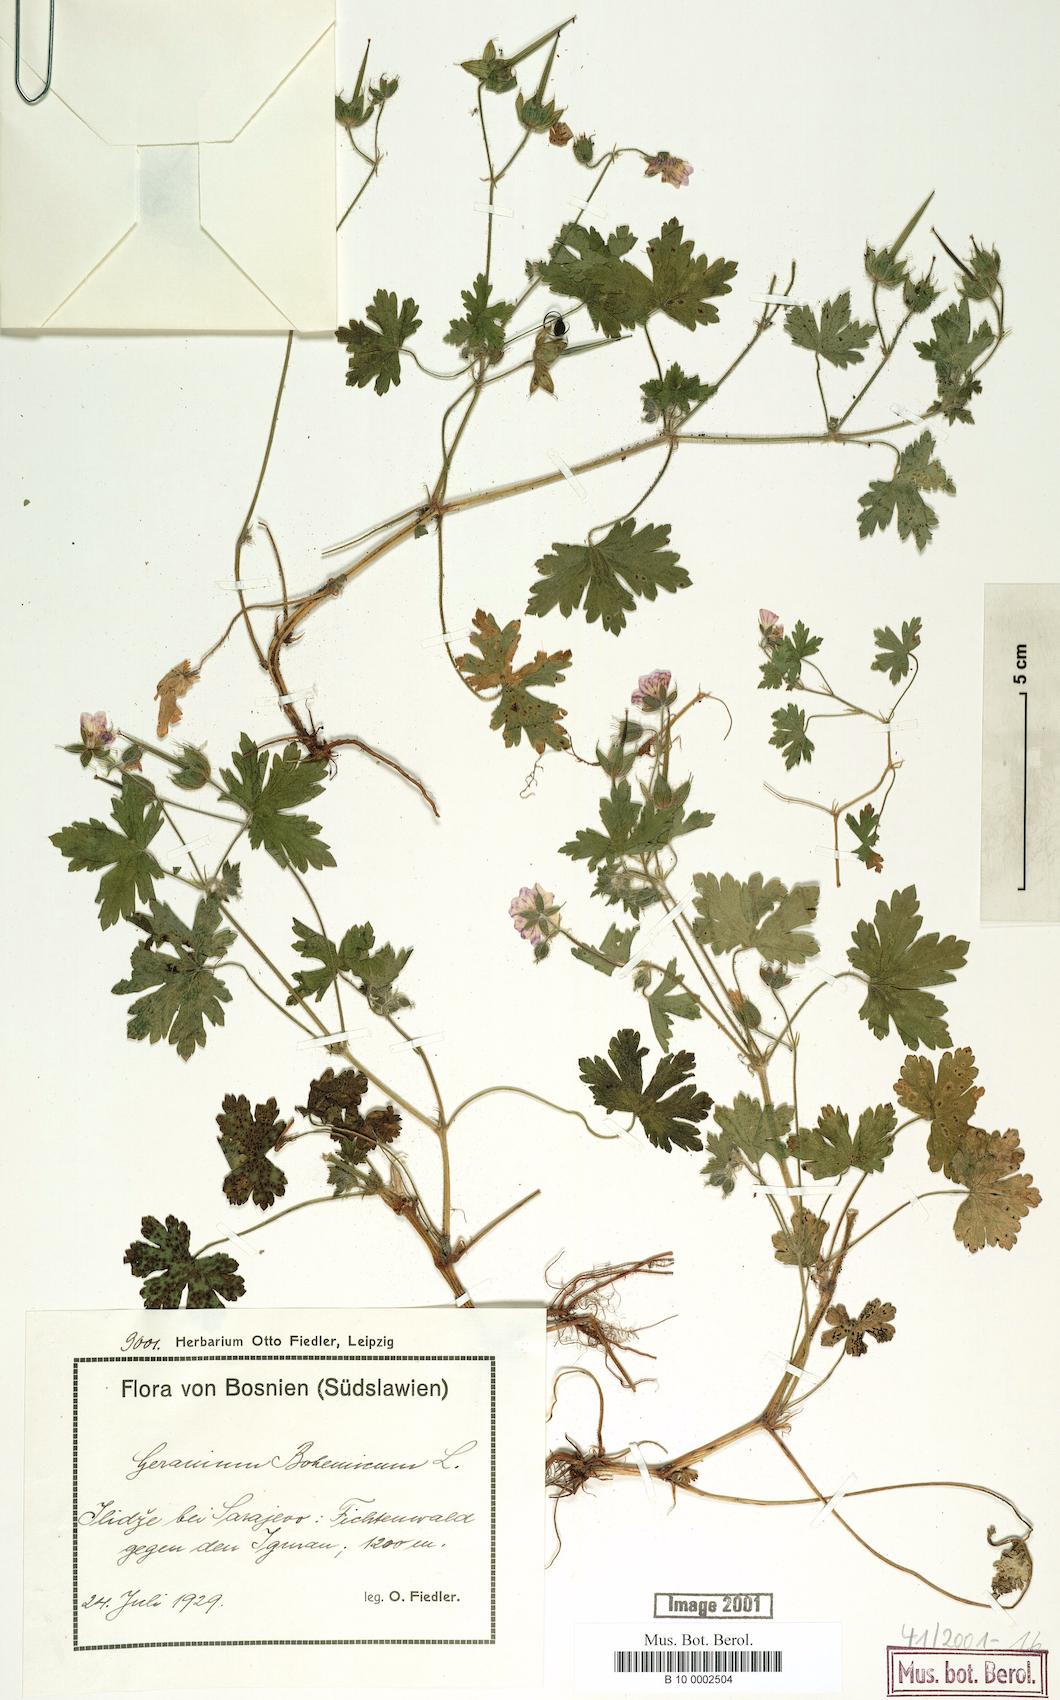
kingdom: Plantae
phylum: Tracheophyta
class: Magnoliopsida
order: Geraniales
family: Geraniaceae
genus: Geranium
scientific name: Geranium bohemicum
